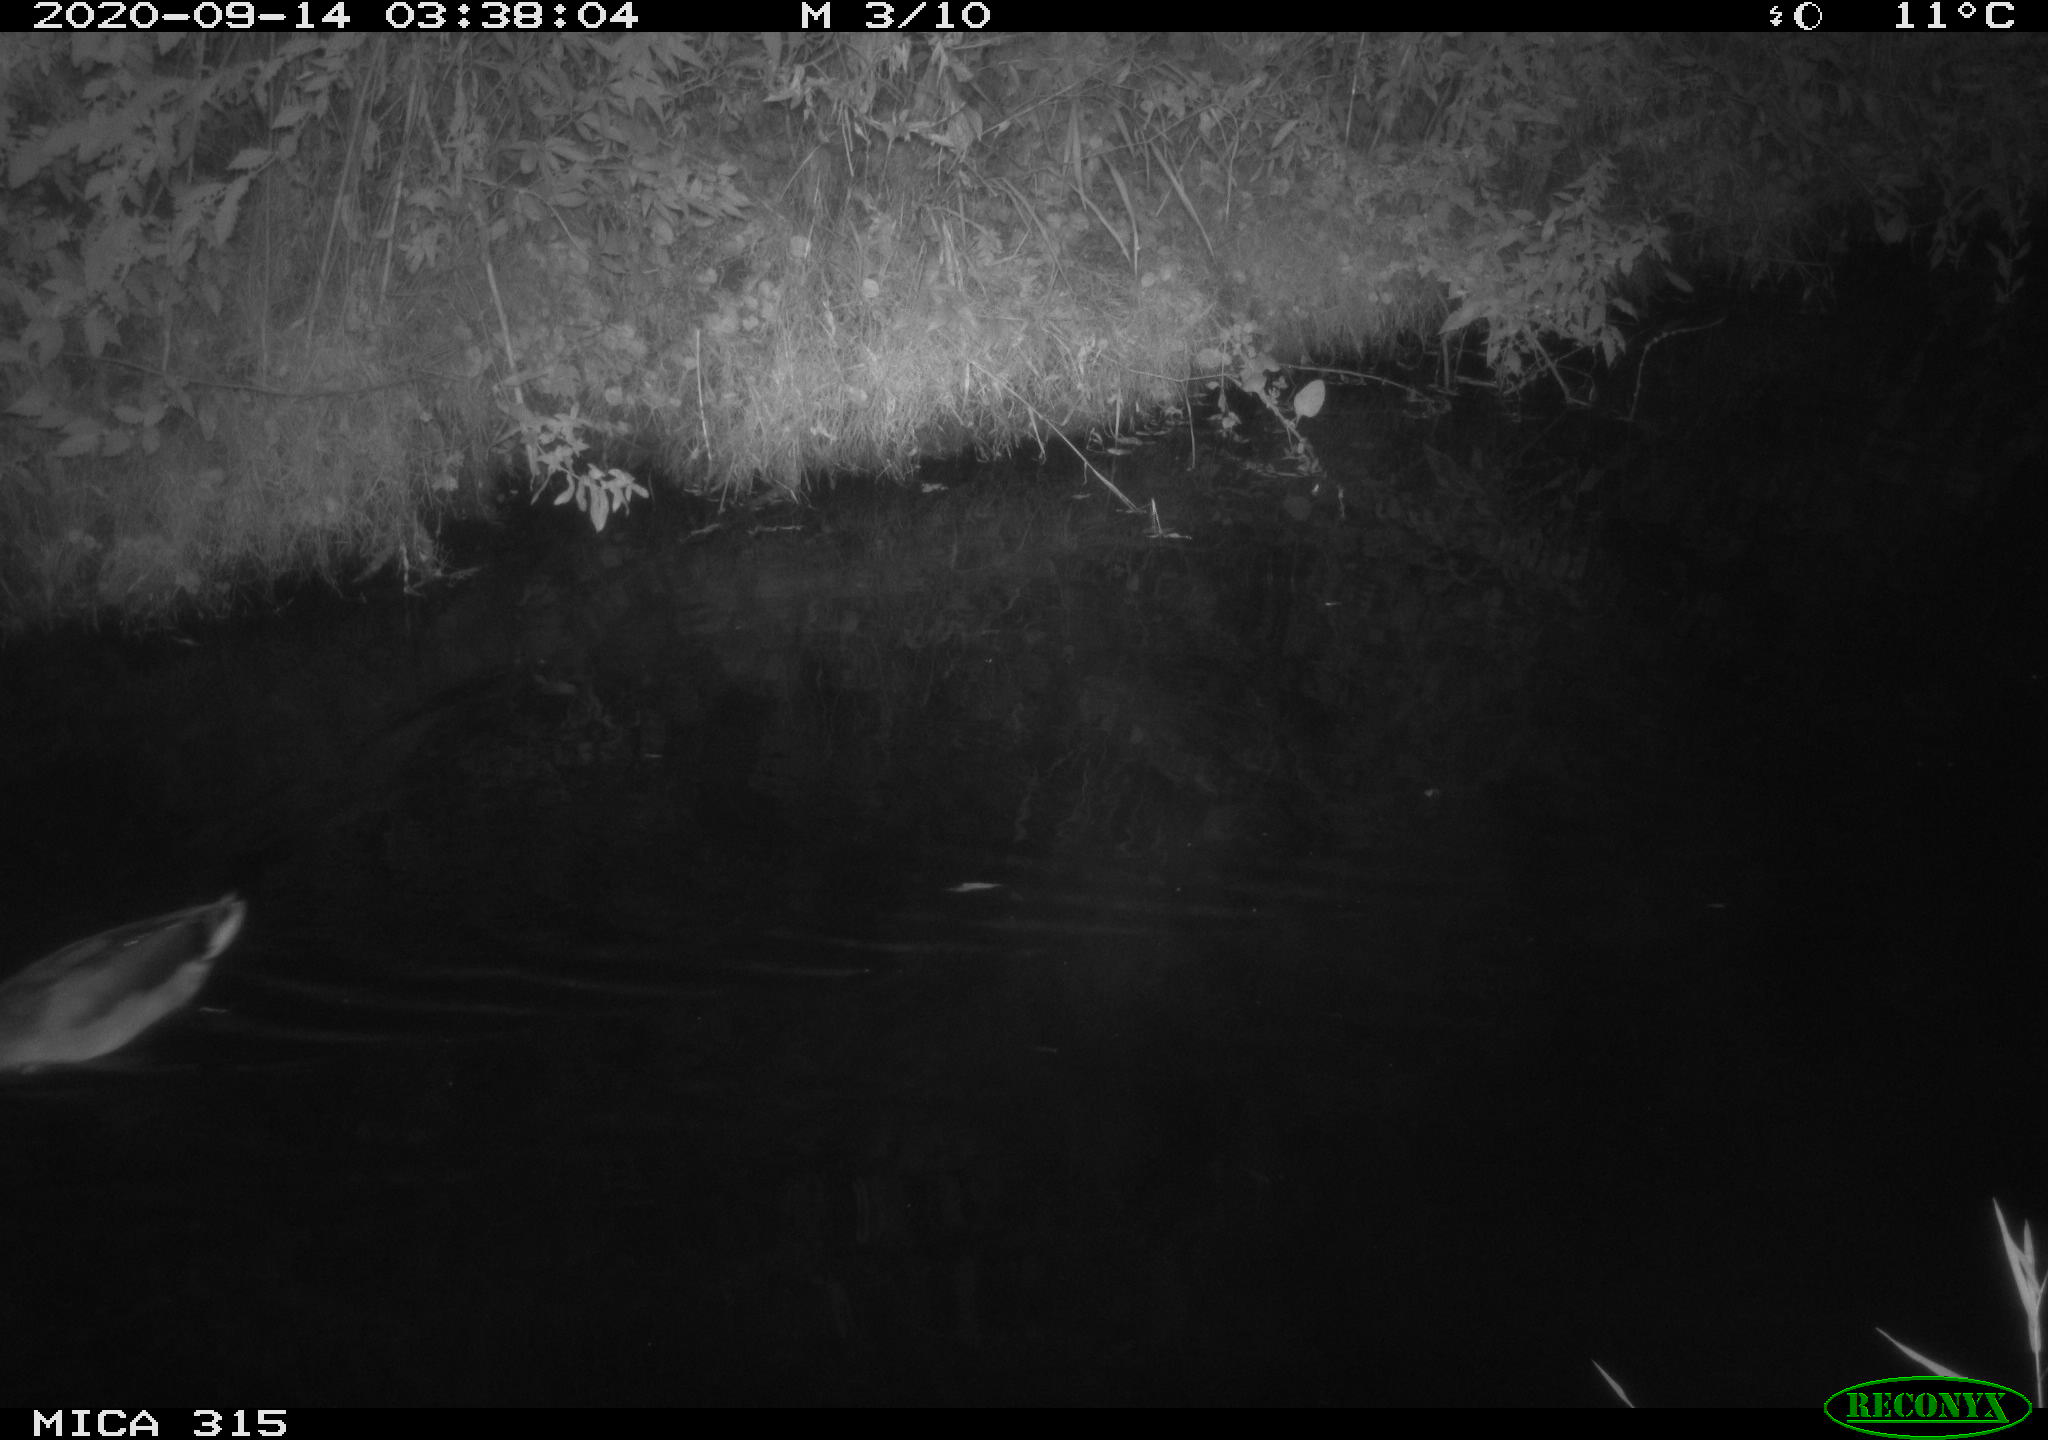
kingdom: Animalia
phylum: Chordata
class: Aves
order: Anseriformes
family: Anatidae
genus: Anas
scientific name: Anas platyrhynchos
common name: Mallard
